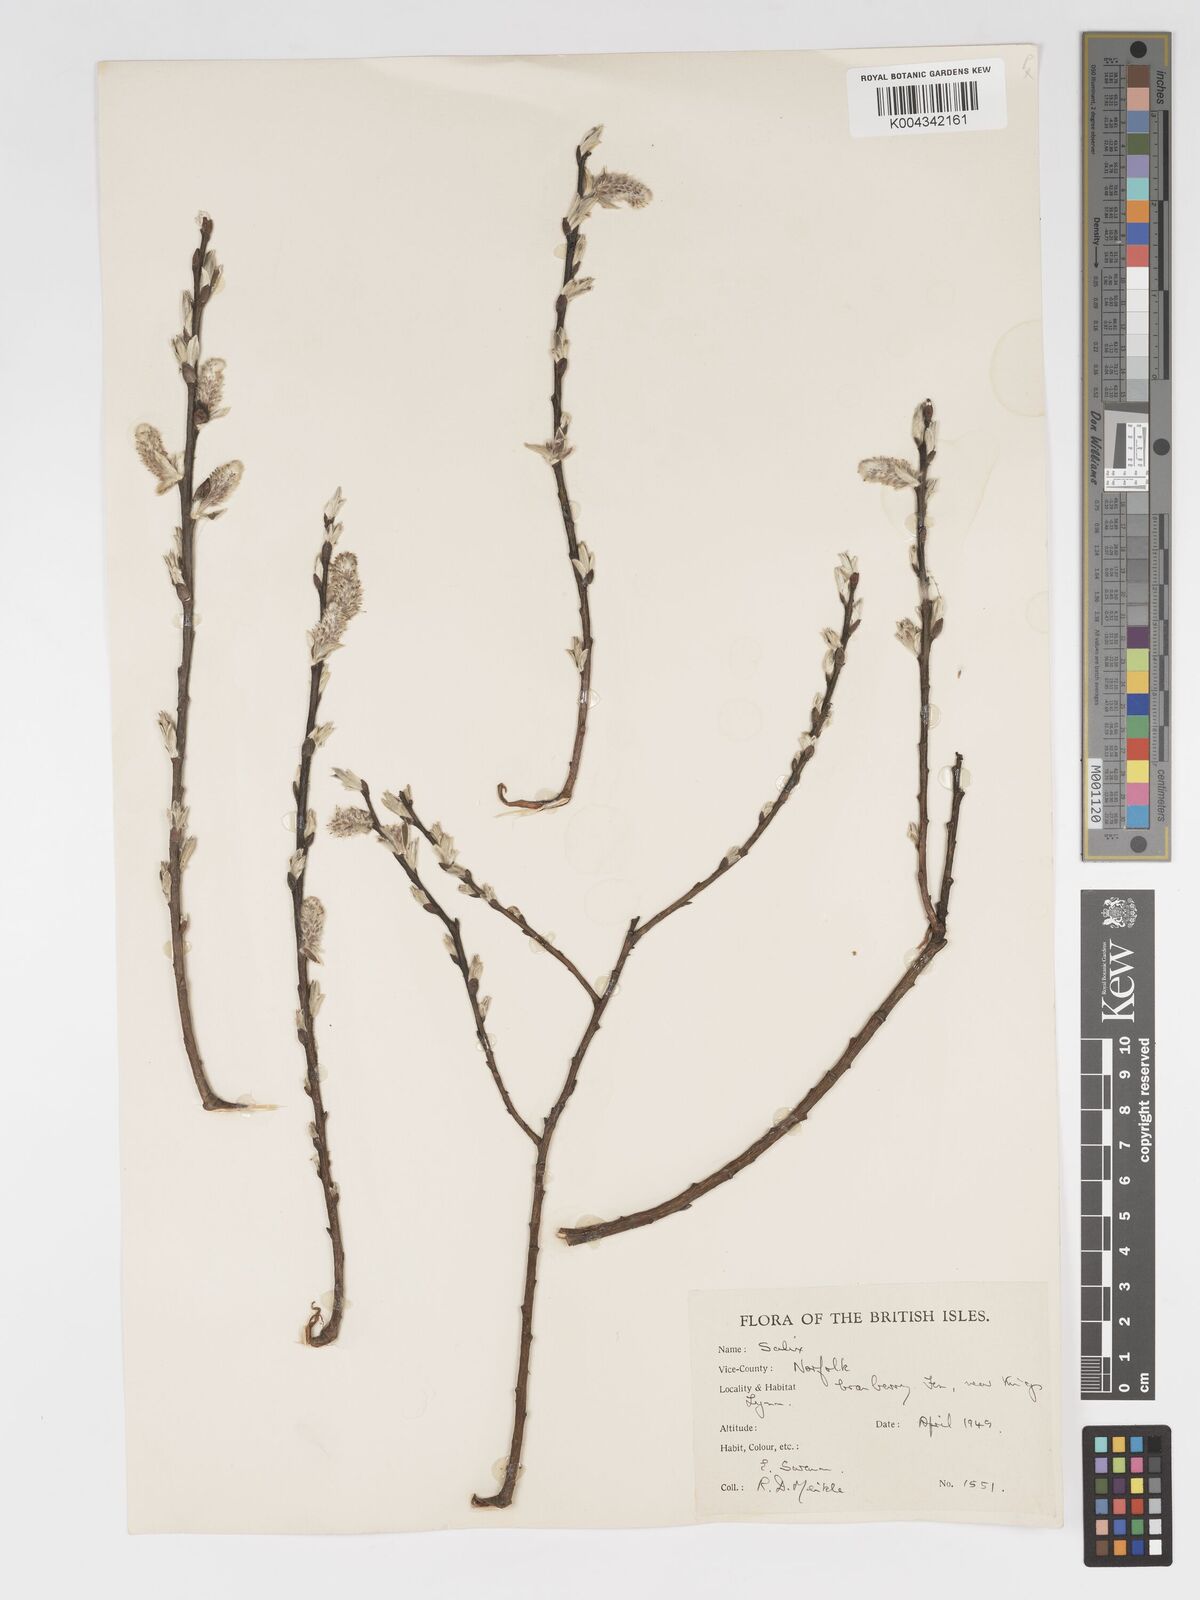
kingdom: Plantae
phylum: Tracheophyta
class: Magnoliopsida
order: Malpighiales
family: Salicaceae
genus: Salix
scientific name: Salix
